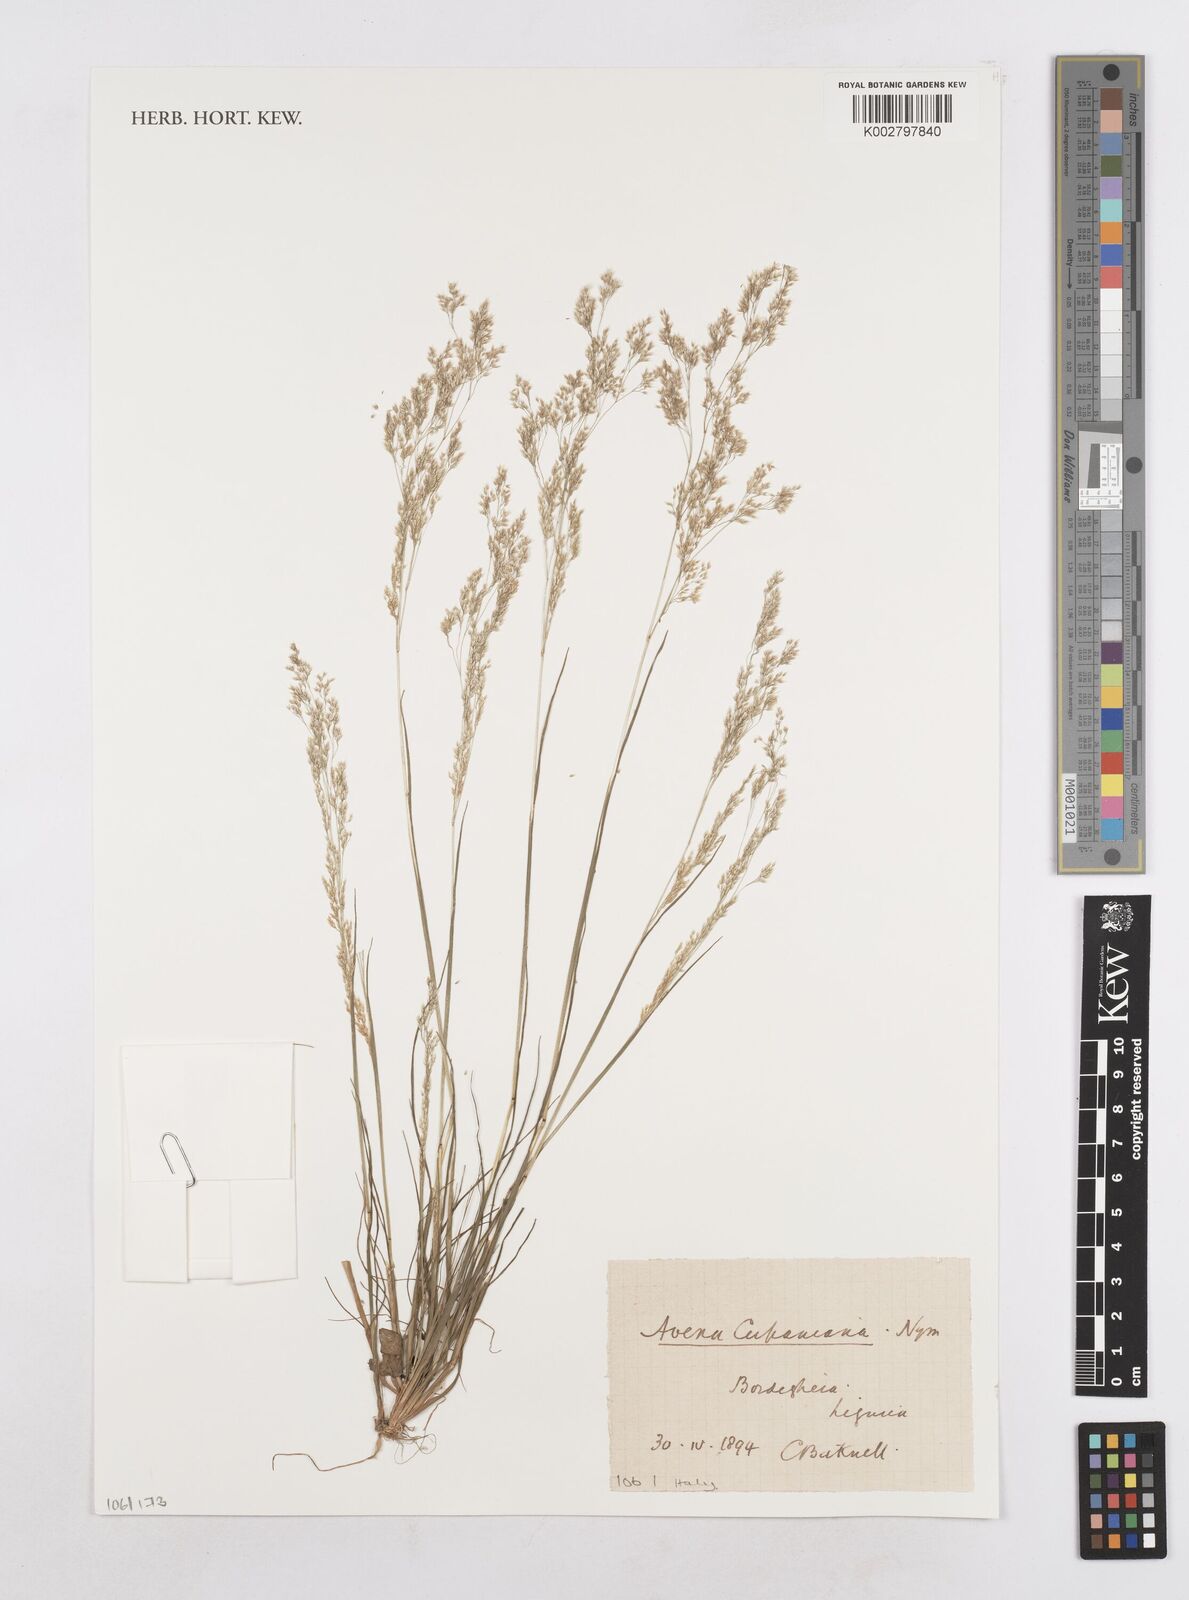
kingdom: Plantae
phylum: Tracheophyta
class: Liliopsida
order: Poales
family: Poaceae
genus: Aira
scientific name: Aira cupaniana
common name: Silver hairgrass
